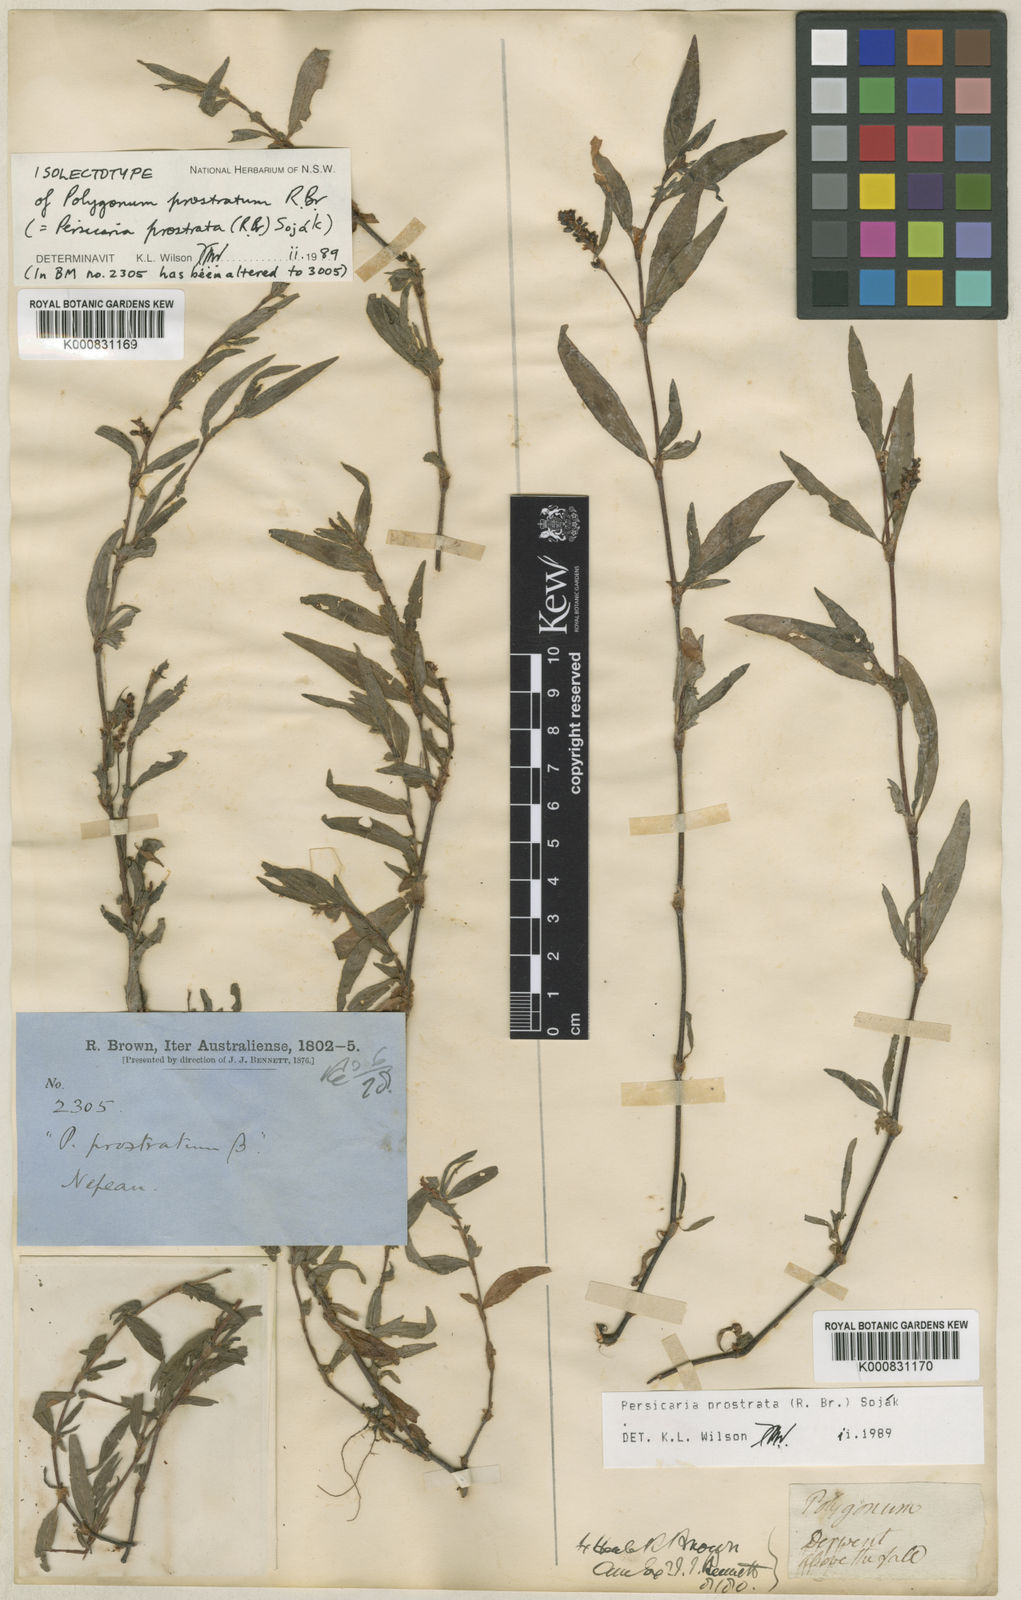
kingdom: Plantae
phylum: Tracheophyta
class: Magnoliopsida
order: Caryophyllales
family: Polygonaceae
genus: Persicaria
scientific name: Persicaria
